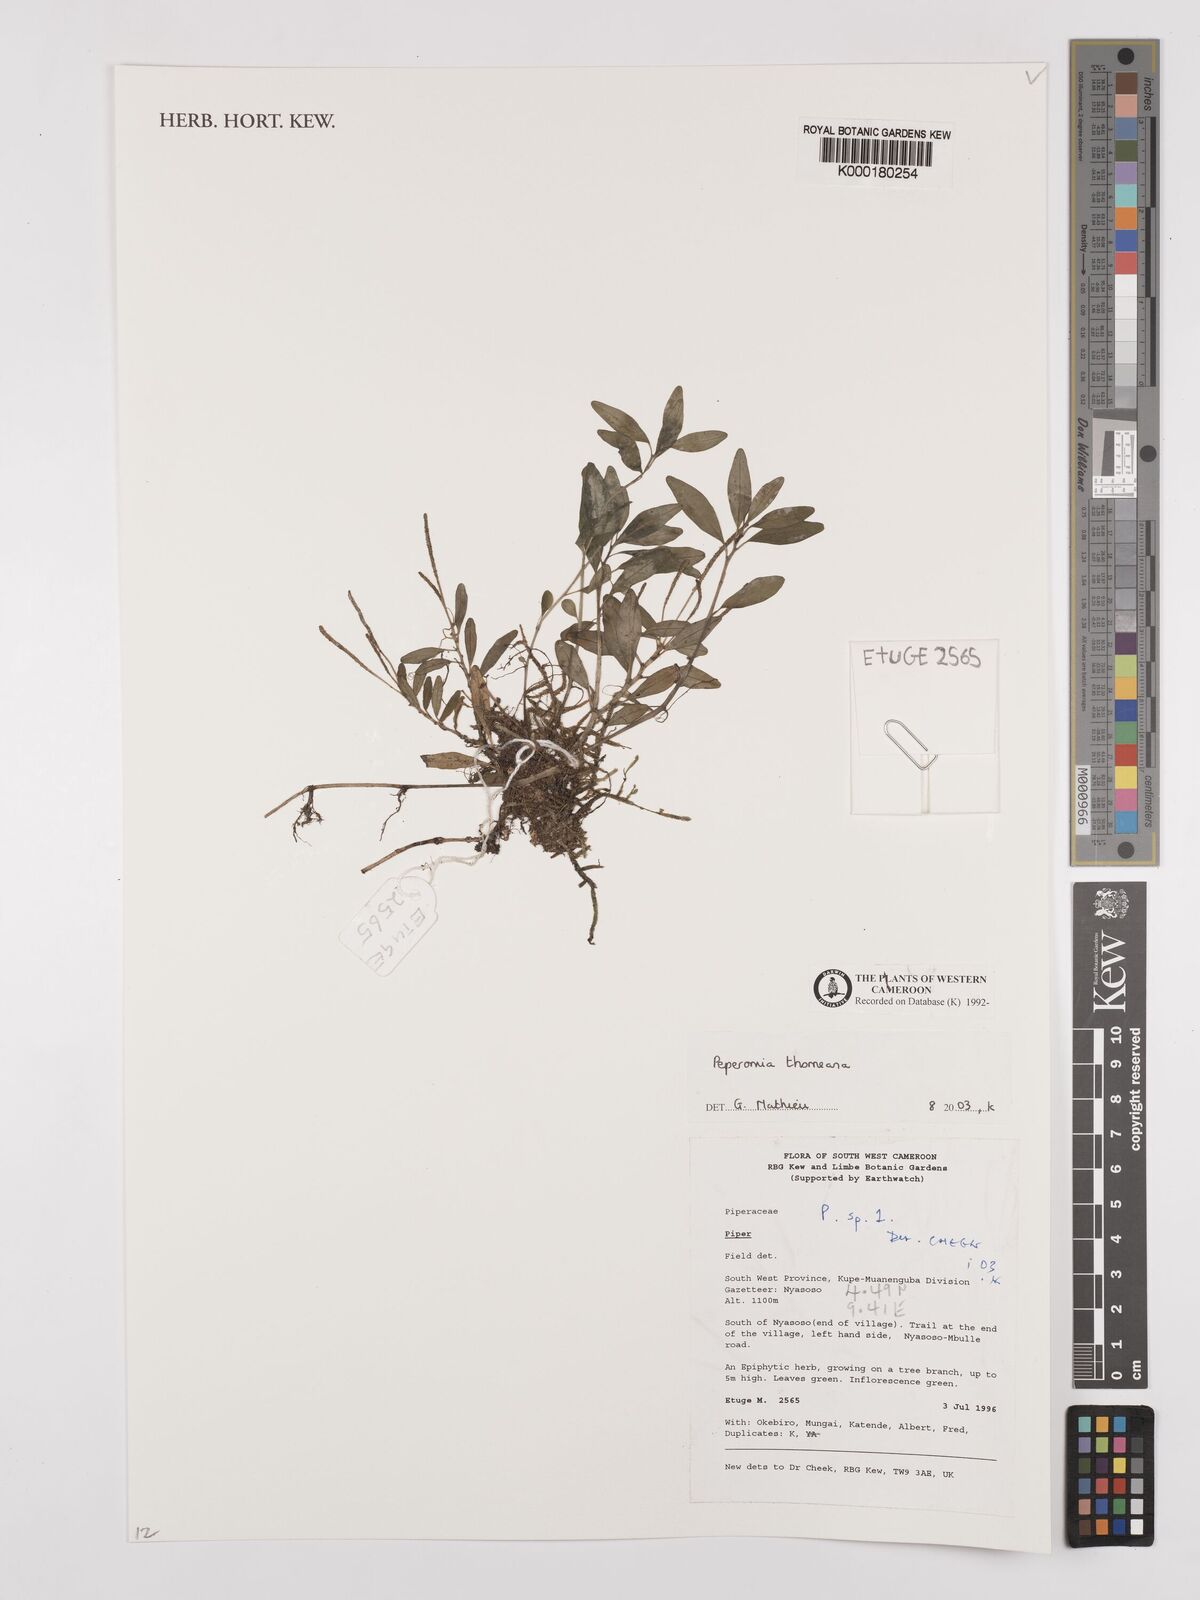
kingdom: Plantae
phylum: Tracheophyta
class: Magnoliopsida
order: Piperales
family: Piperaceae
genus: Peperomia
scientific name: Peperomia thomeana
